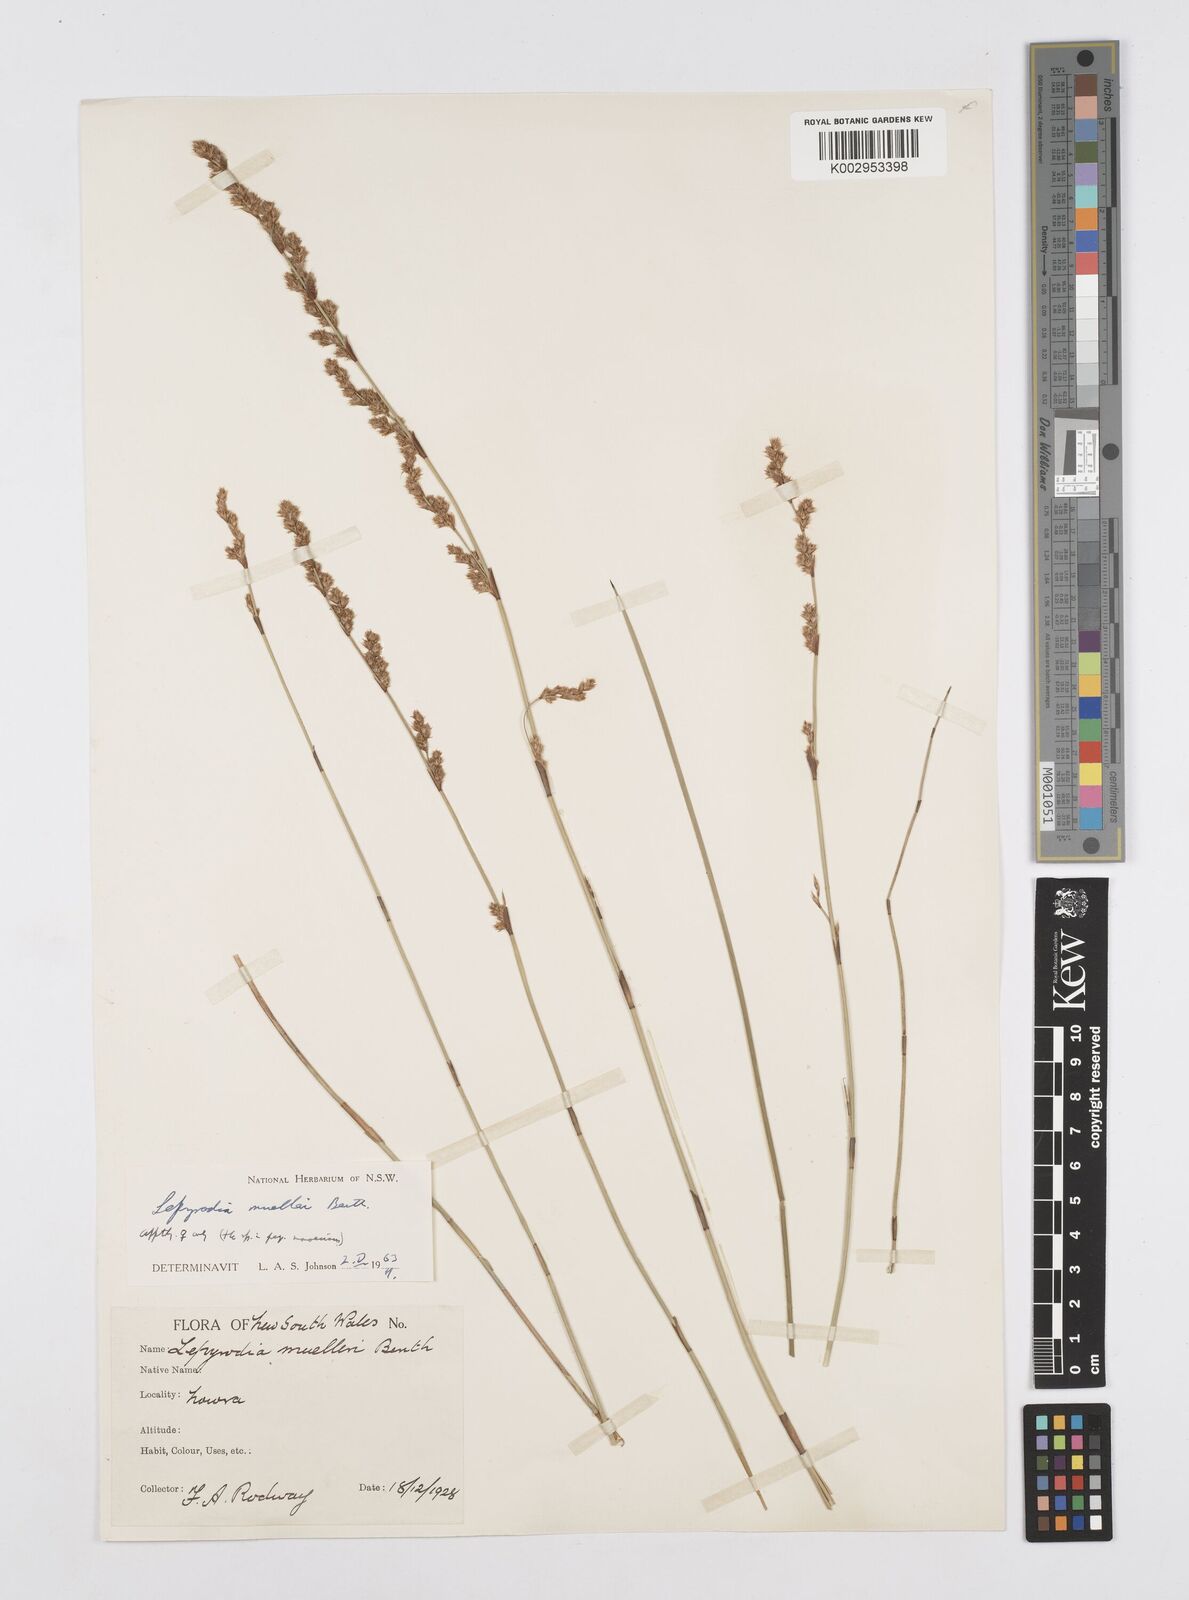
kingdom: Plantae
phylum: Tracheophyta
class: Liliopsida
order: Poales
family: Restionaceae
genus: Lepyrodia
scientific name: Lepyrodia muelleri
